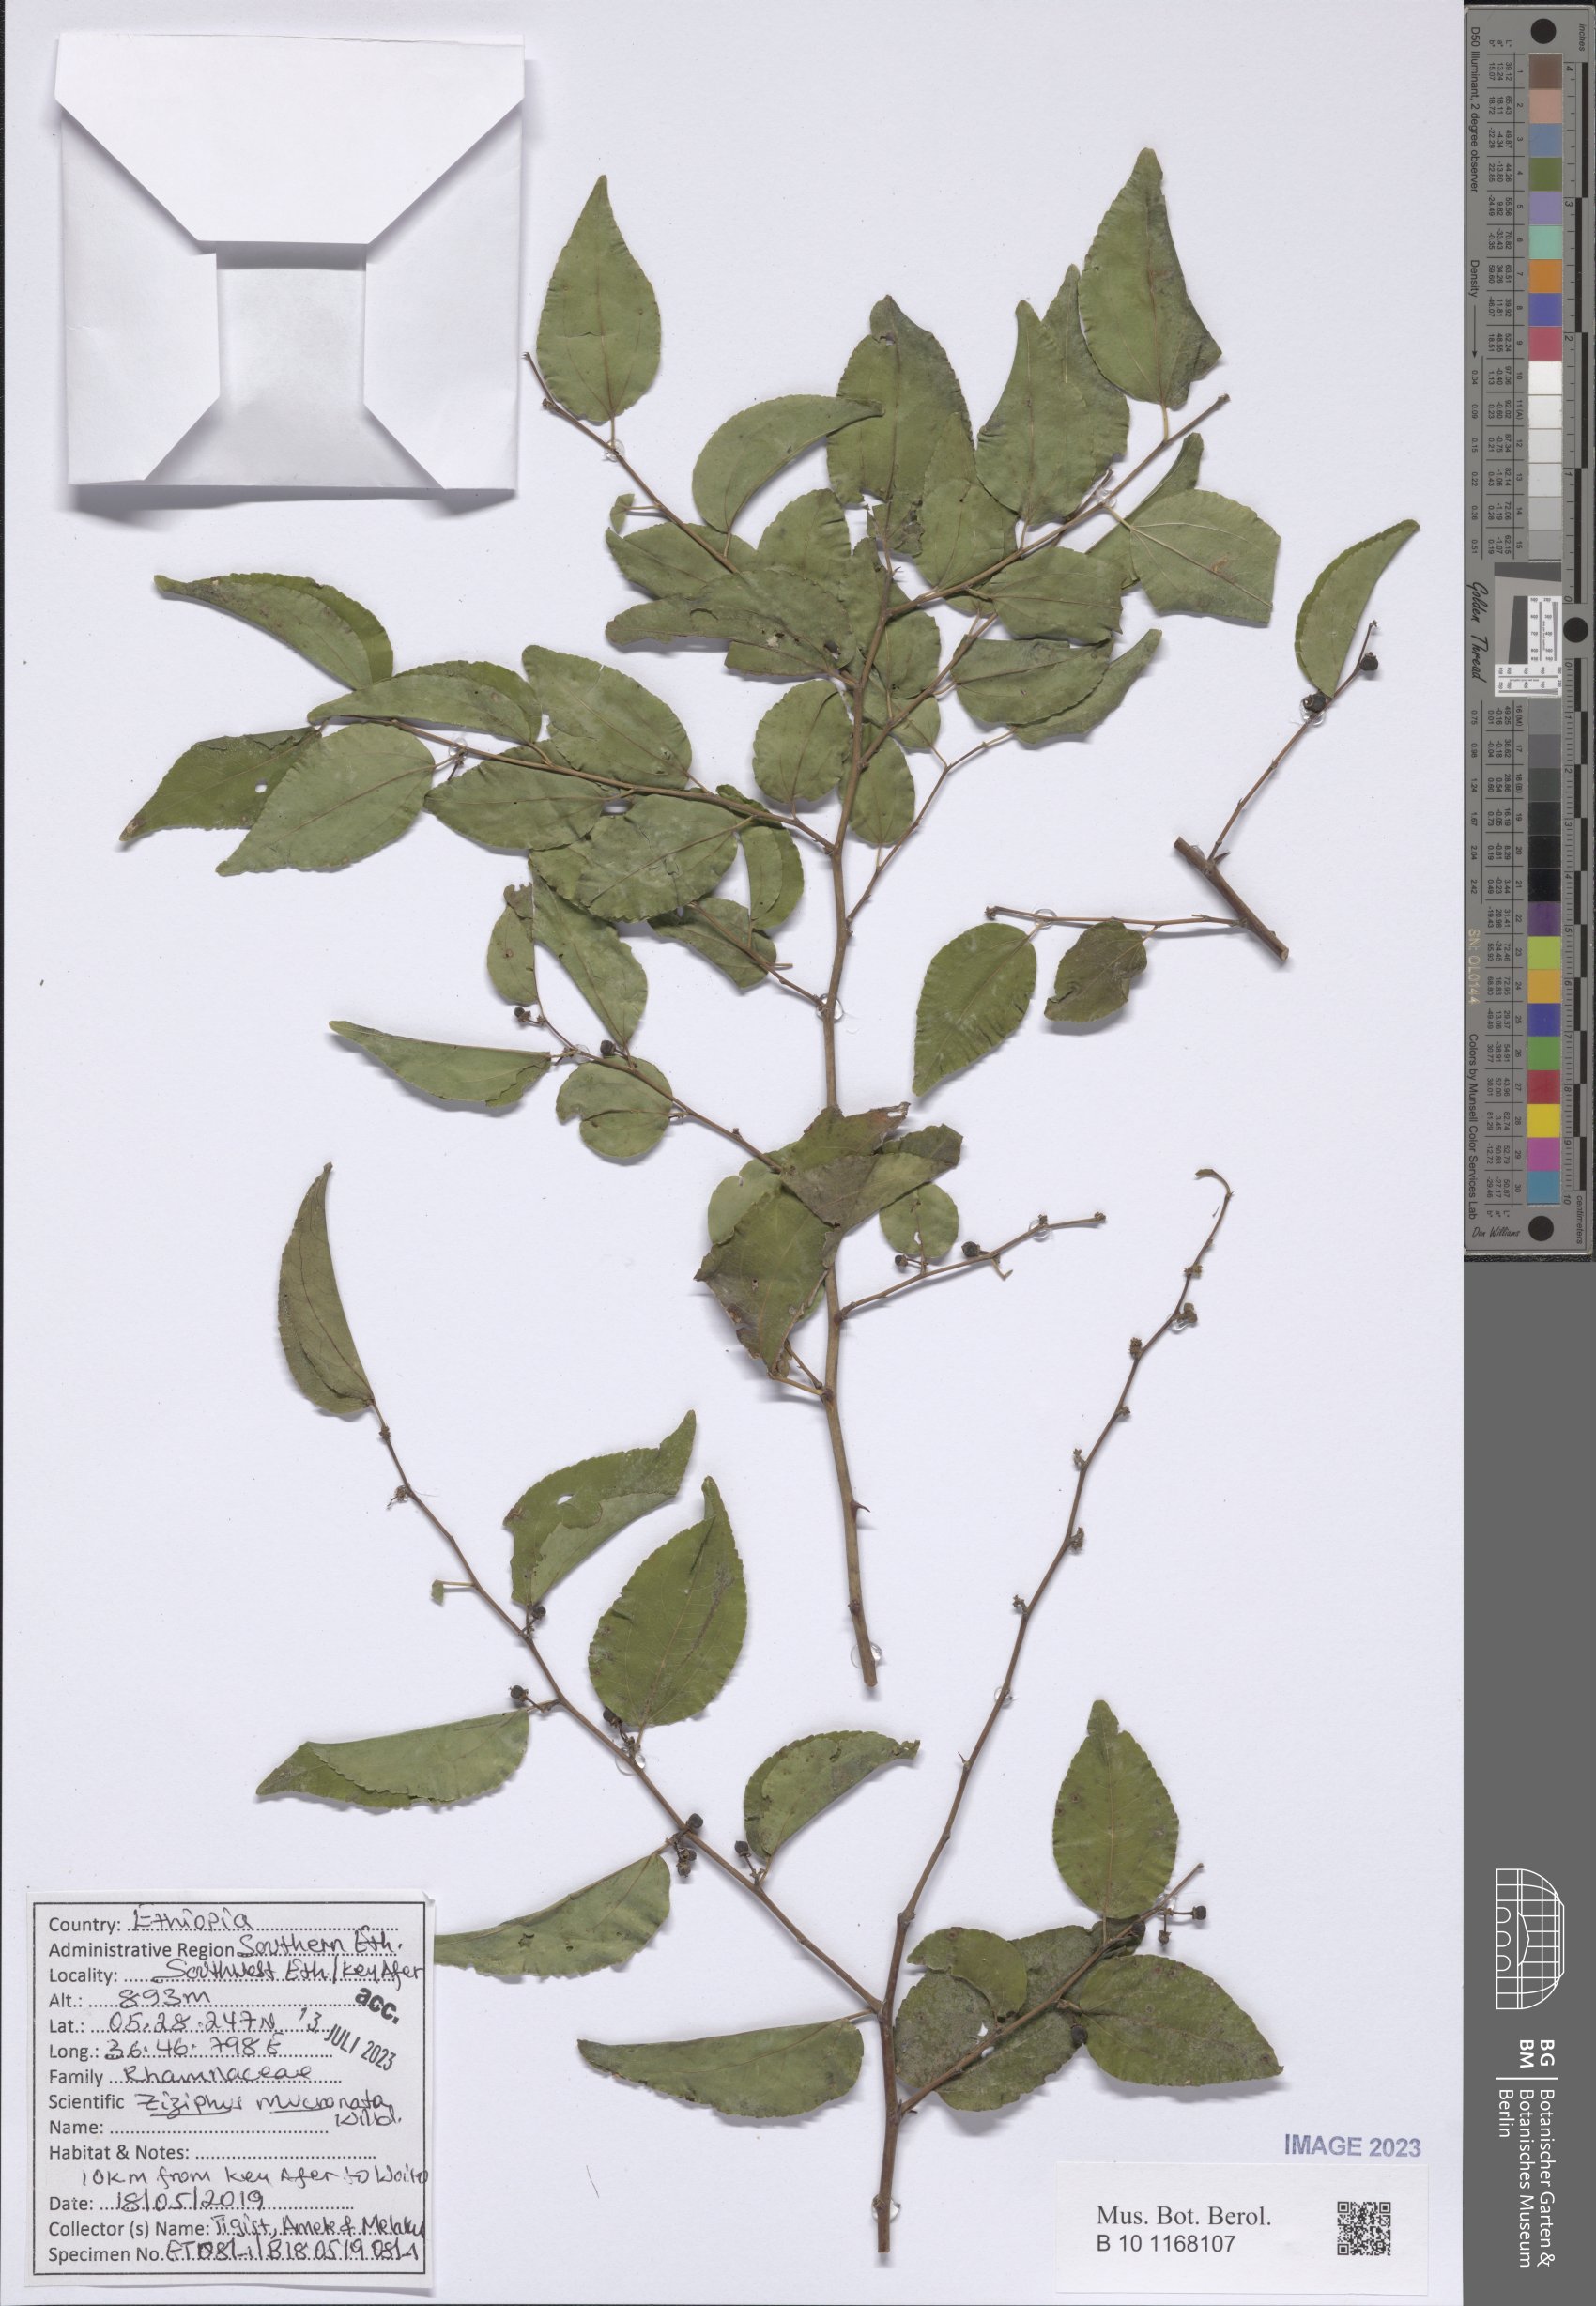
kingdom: Plantae
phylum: Tracheophyta
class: Magnoliopsida
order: Rosales
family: Rhamnaceae
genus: Ziziphus
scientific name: Ziziphus spina-christi
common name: Syrian christ-thorn
